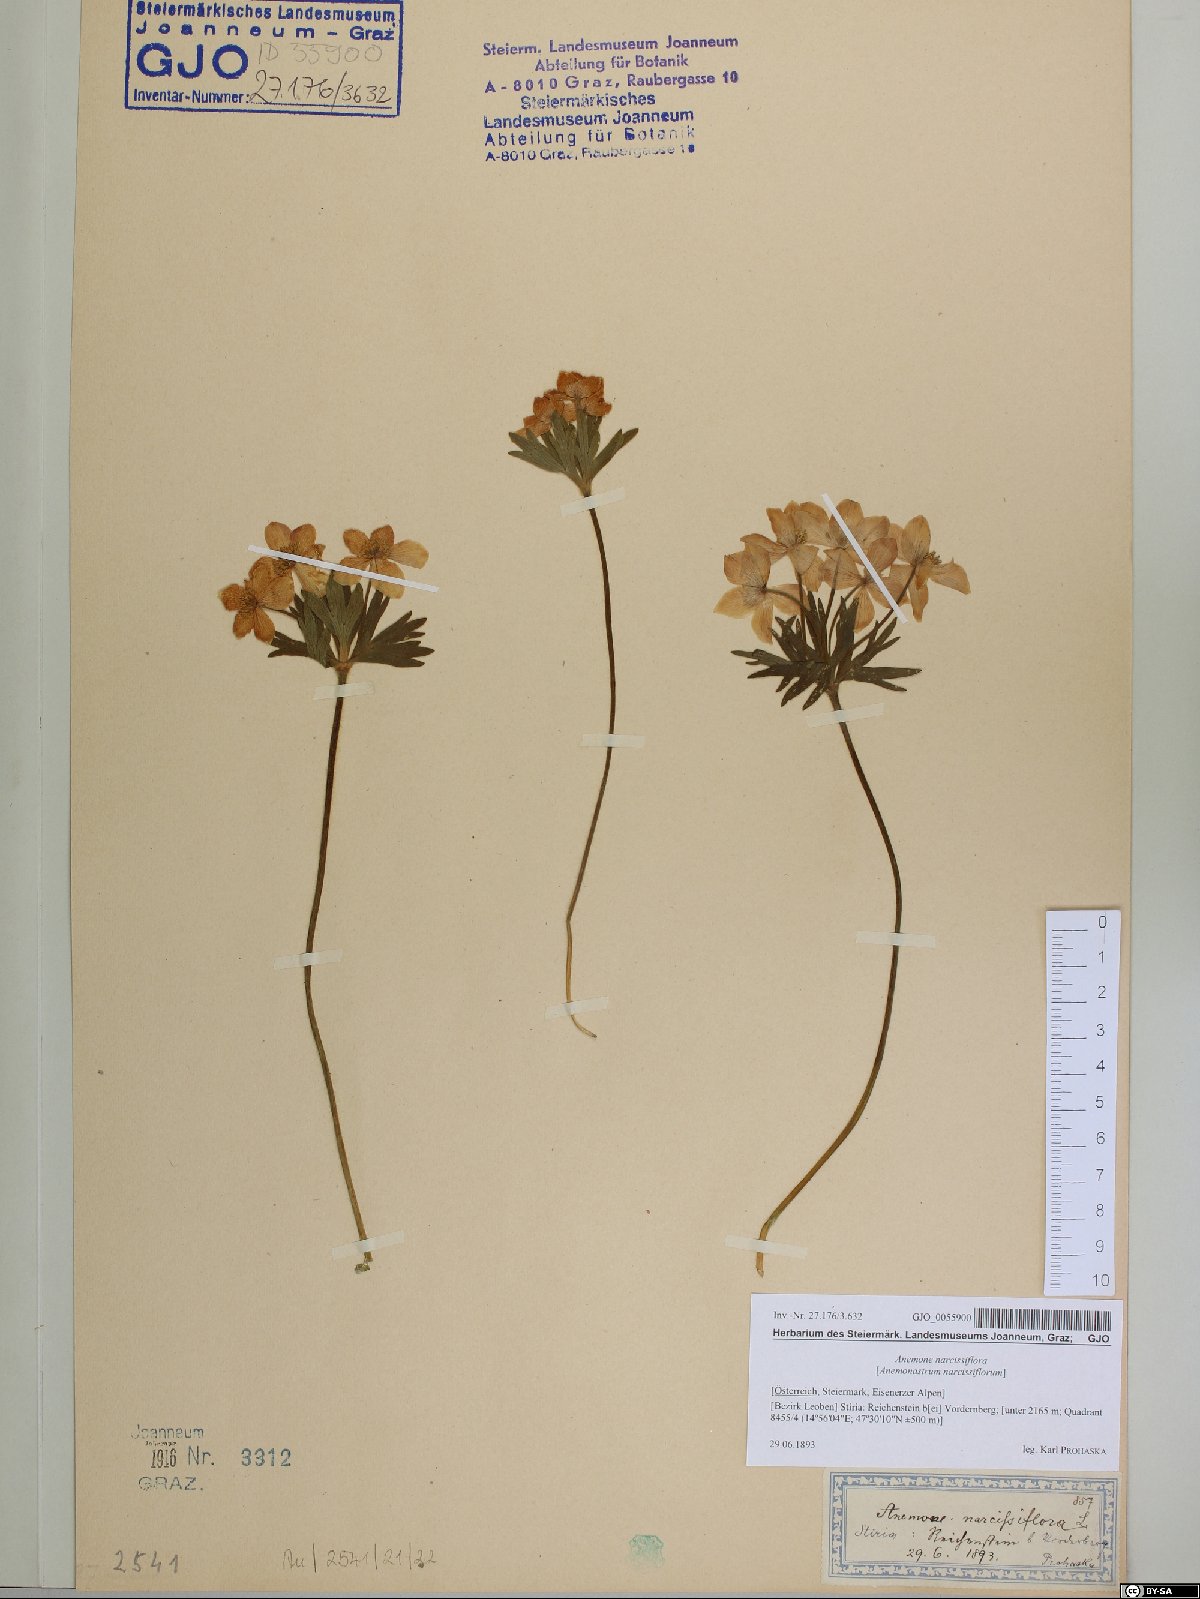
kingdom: Plantae
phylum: Tracheophyta
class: Magnoliopsida
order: Ranunculales
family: Ranunculaceae
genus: Anemonastrum
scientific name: Anemonastrum narcissiflorum
